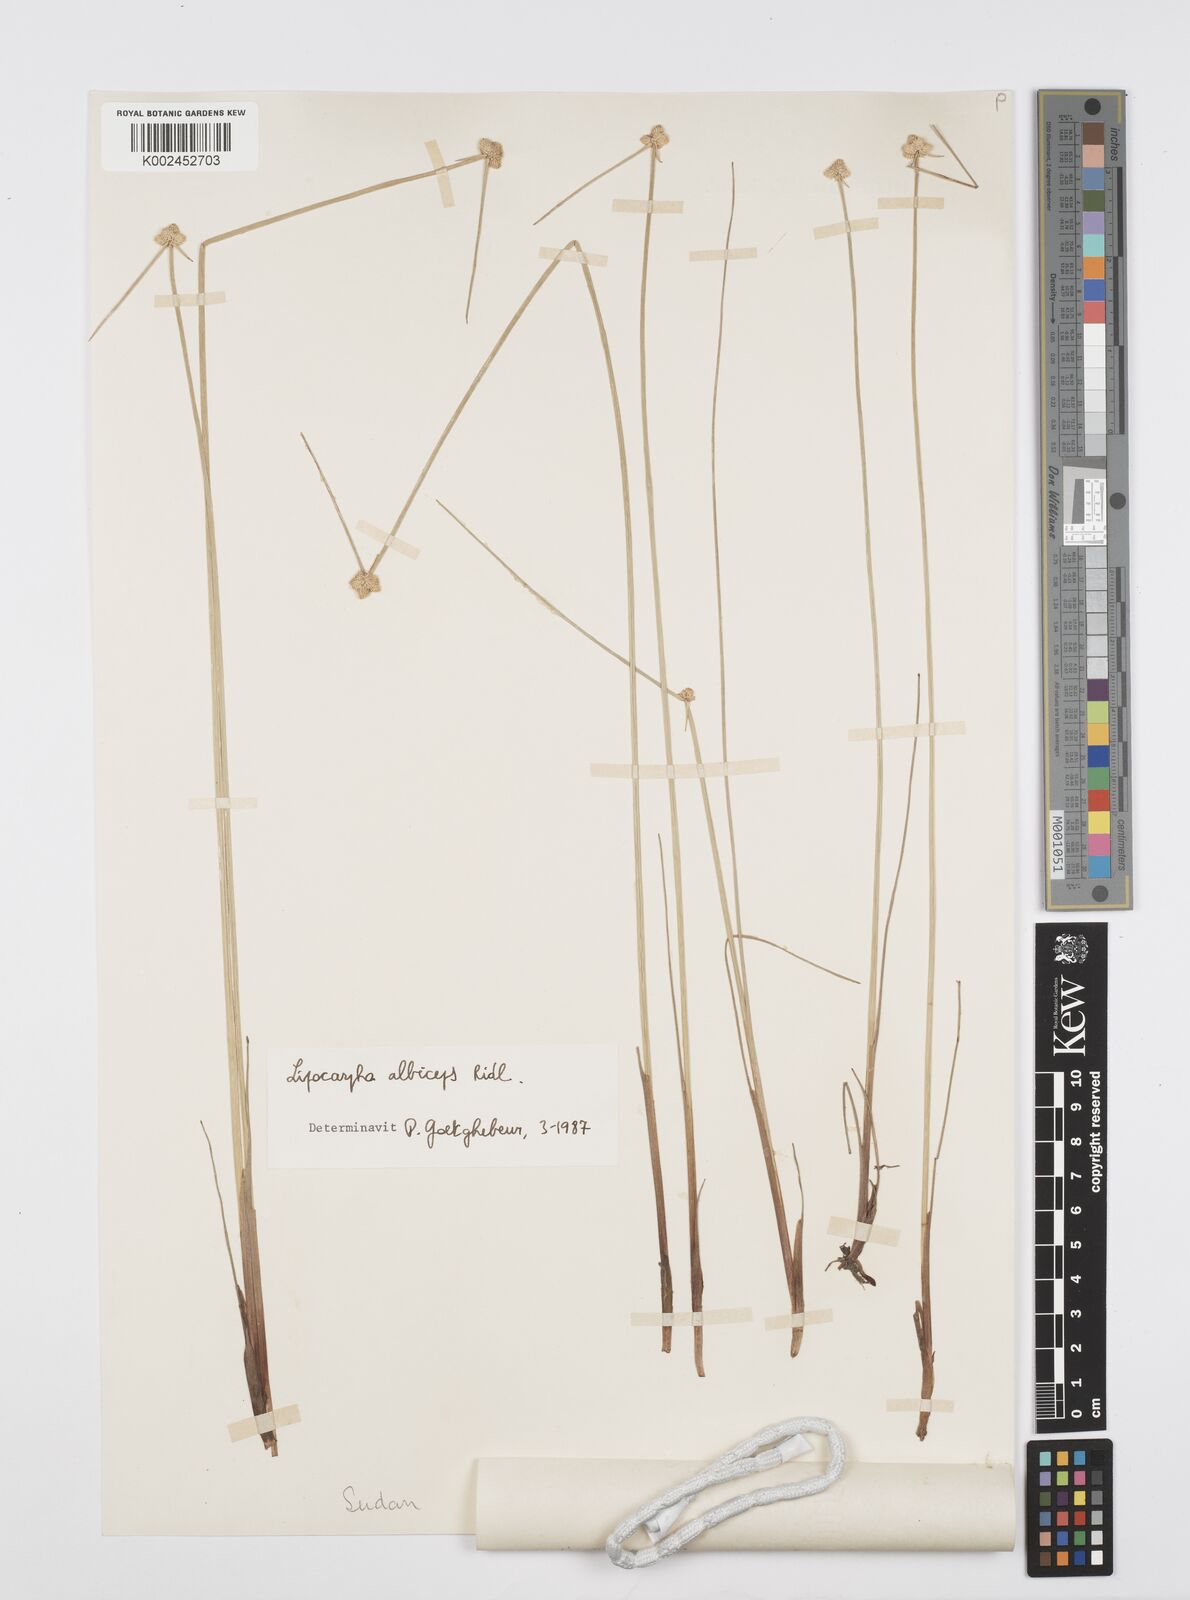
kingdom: Plantae
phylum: Tracheophyta
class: Liliopsida
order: Poales
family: Cyperaceae
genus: Cyperus
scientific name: Cyperus albiceps
